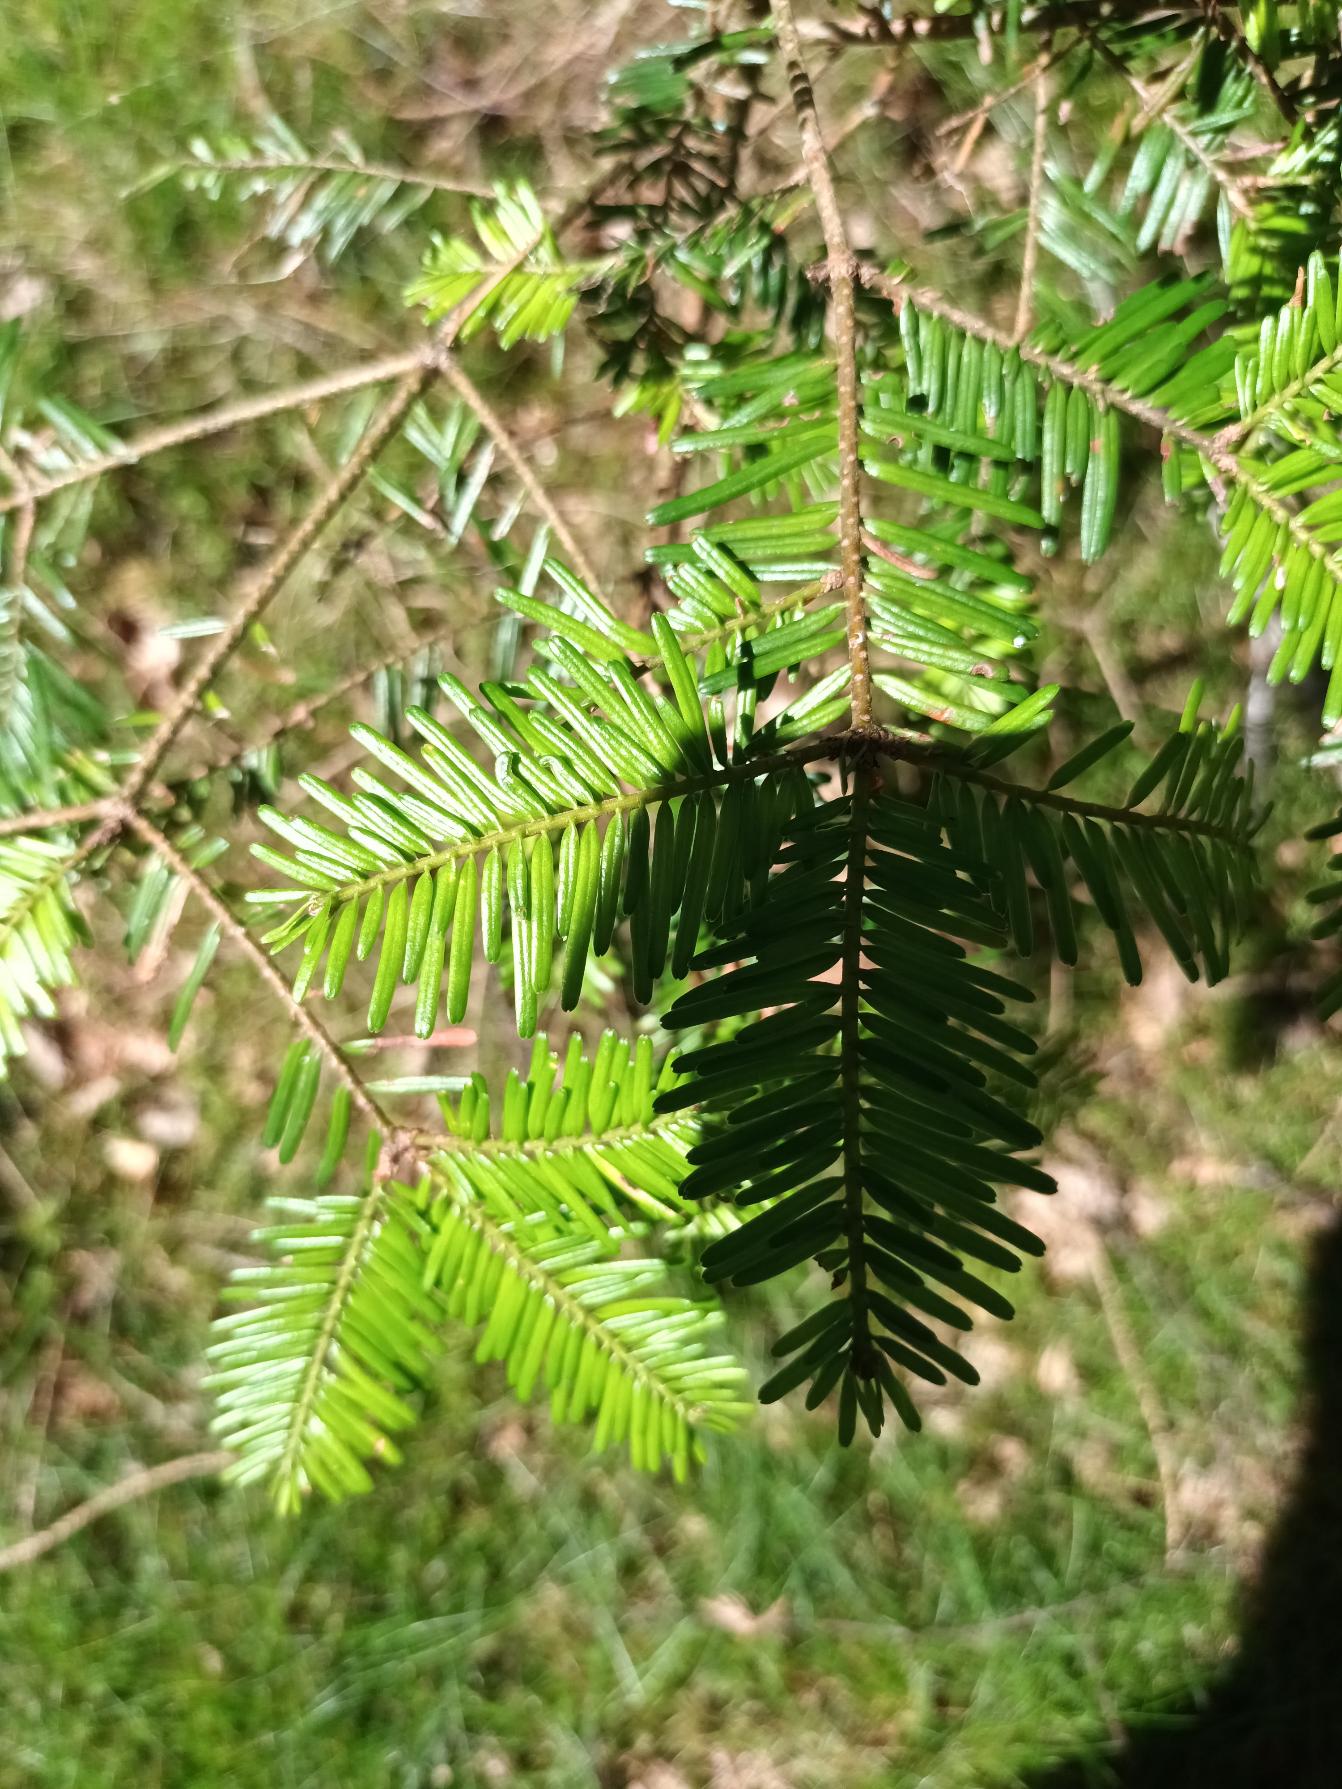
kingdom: Plantae
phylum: Tracheophyta
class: Pinopsida
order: Pinales
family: Pinaceae
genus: Abies
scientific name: Abies
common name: Ædelgranslægten
